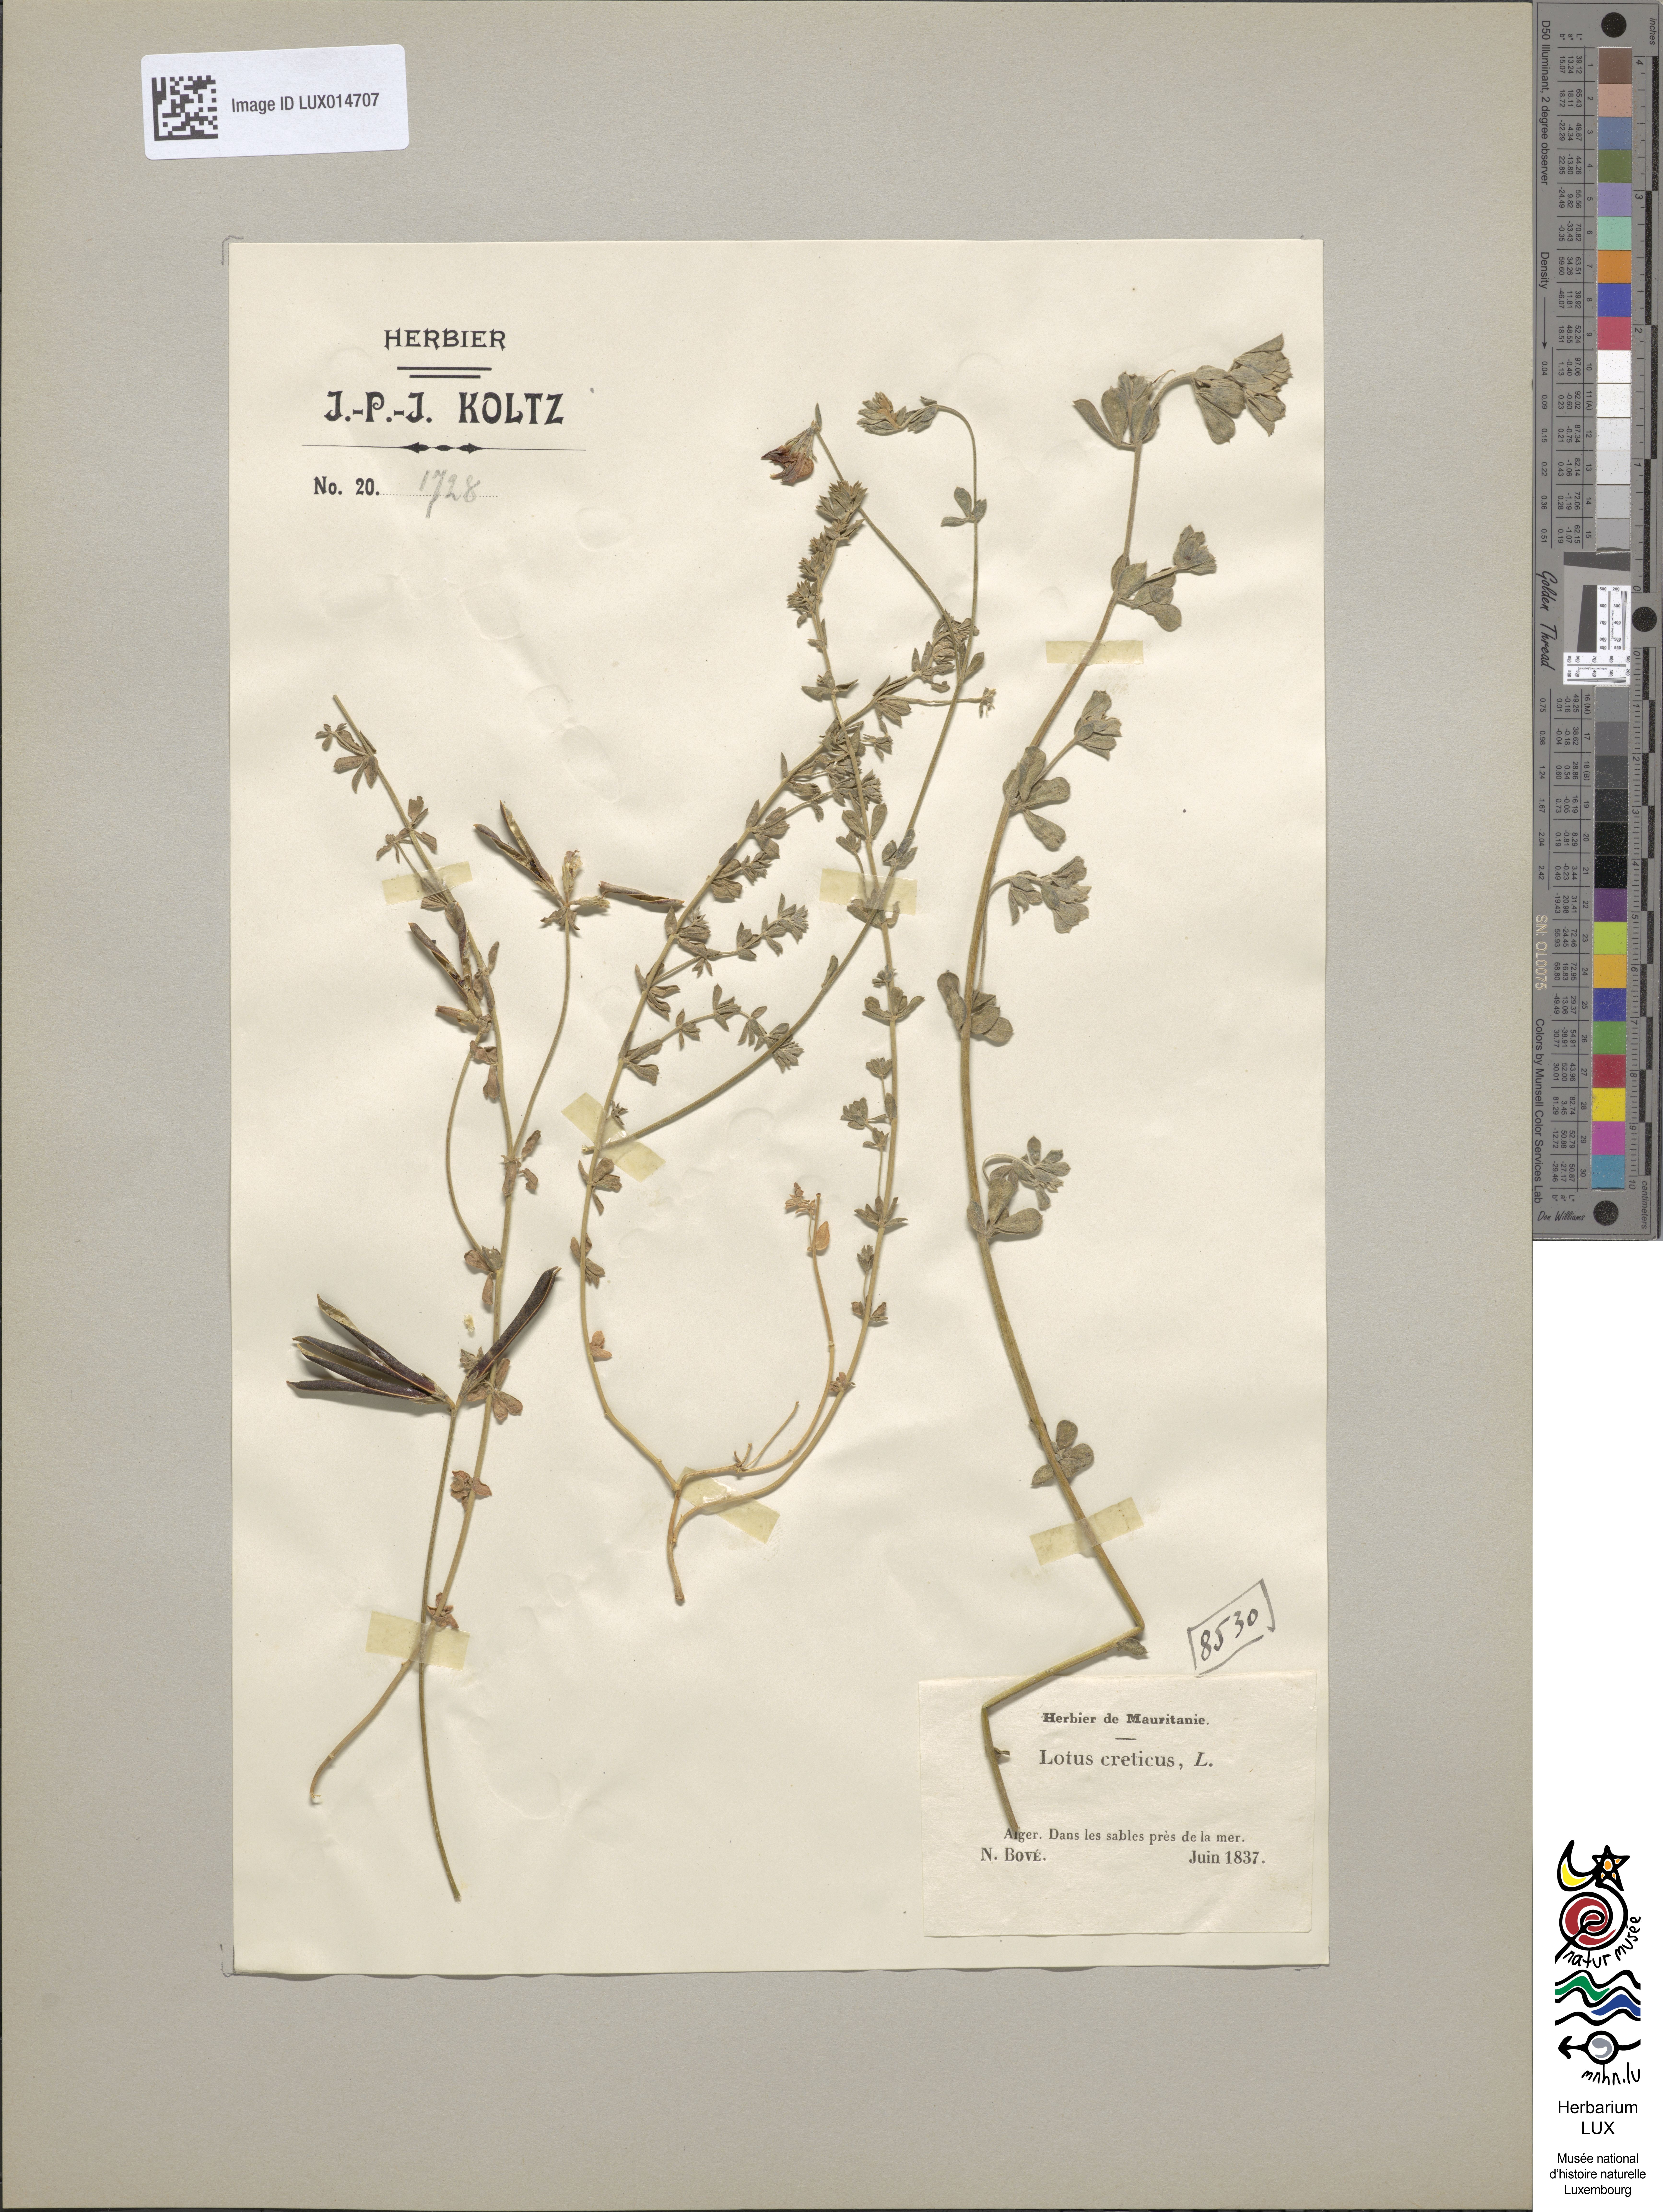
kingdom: Plantae
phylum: Tracheophyta
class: Magnoliopsida
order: Fabales
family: Fabaceae
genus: Lotus
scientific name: Lotus creticus
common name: Cretan bird's-foot trefoil
